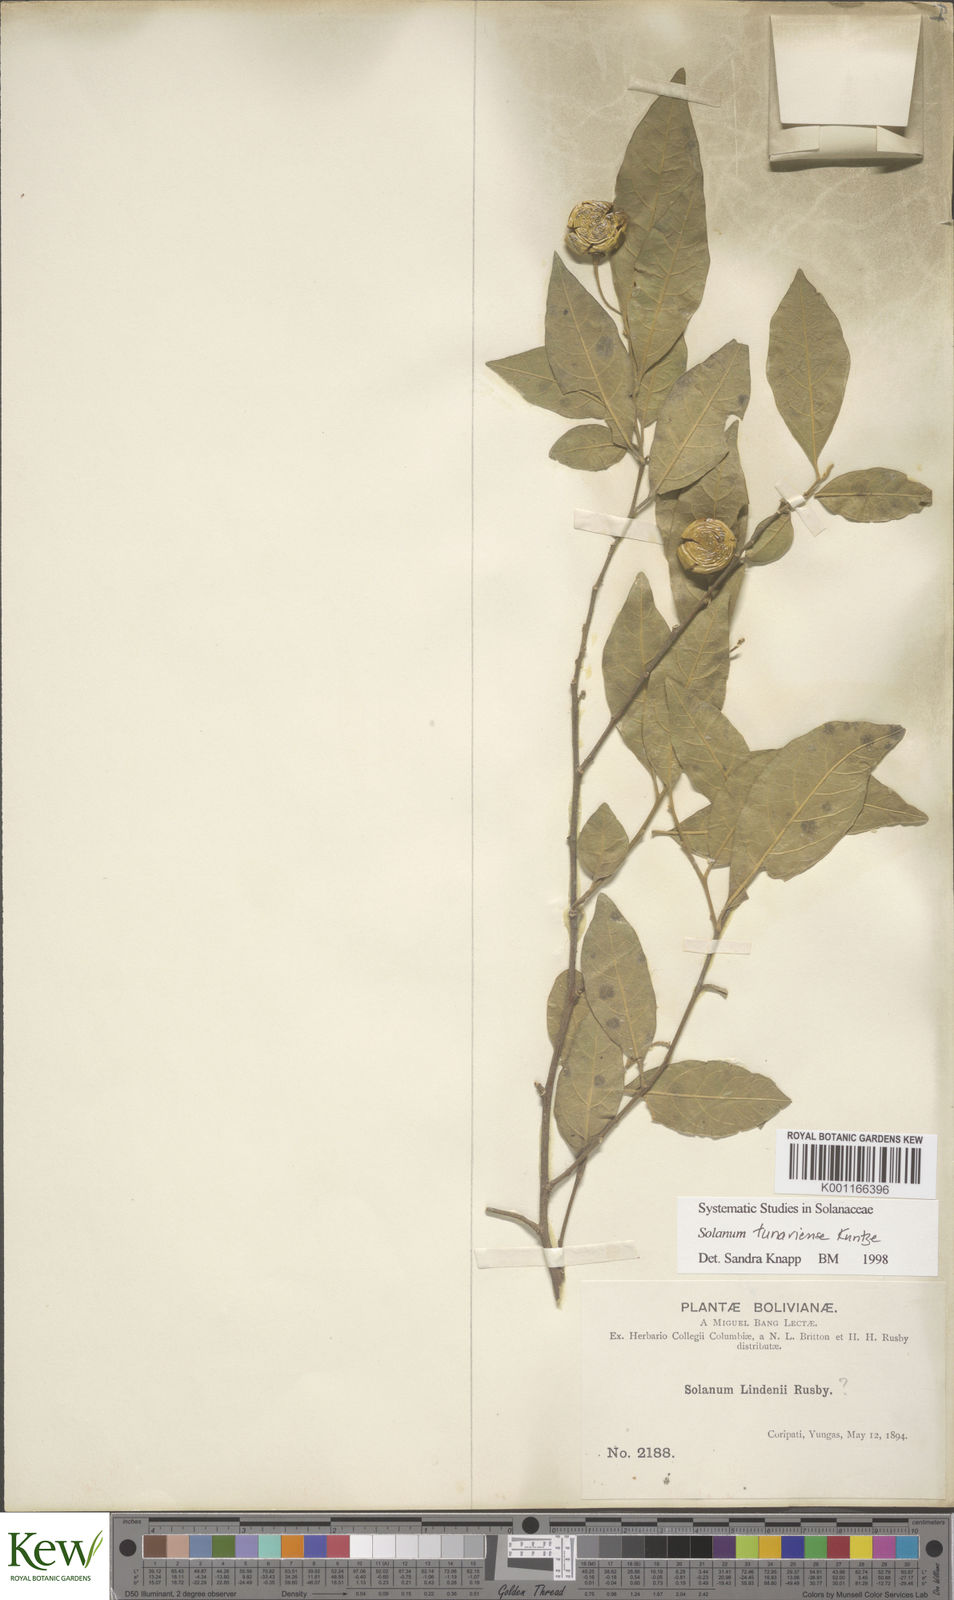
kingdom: Plantae
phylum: Tracheophyta
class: Magnoliopsida
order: Solanales
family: Solanaceae
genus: Solanum
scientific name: Solanum tunariense
